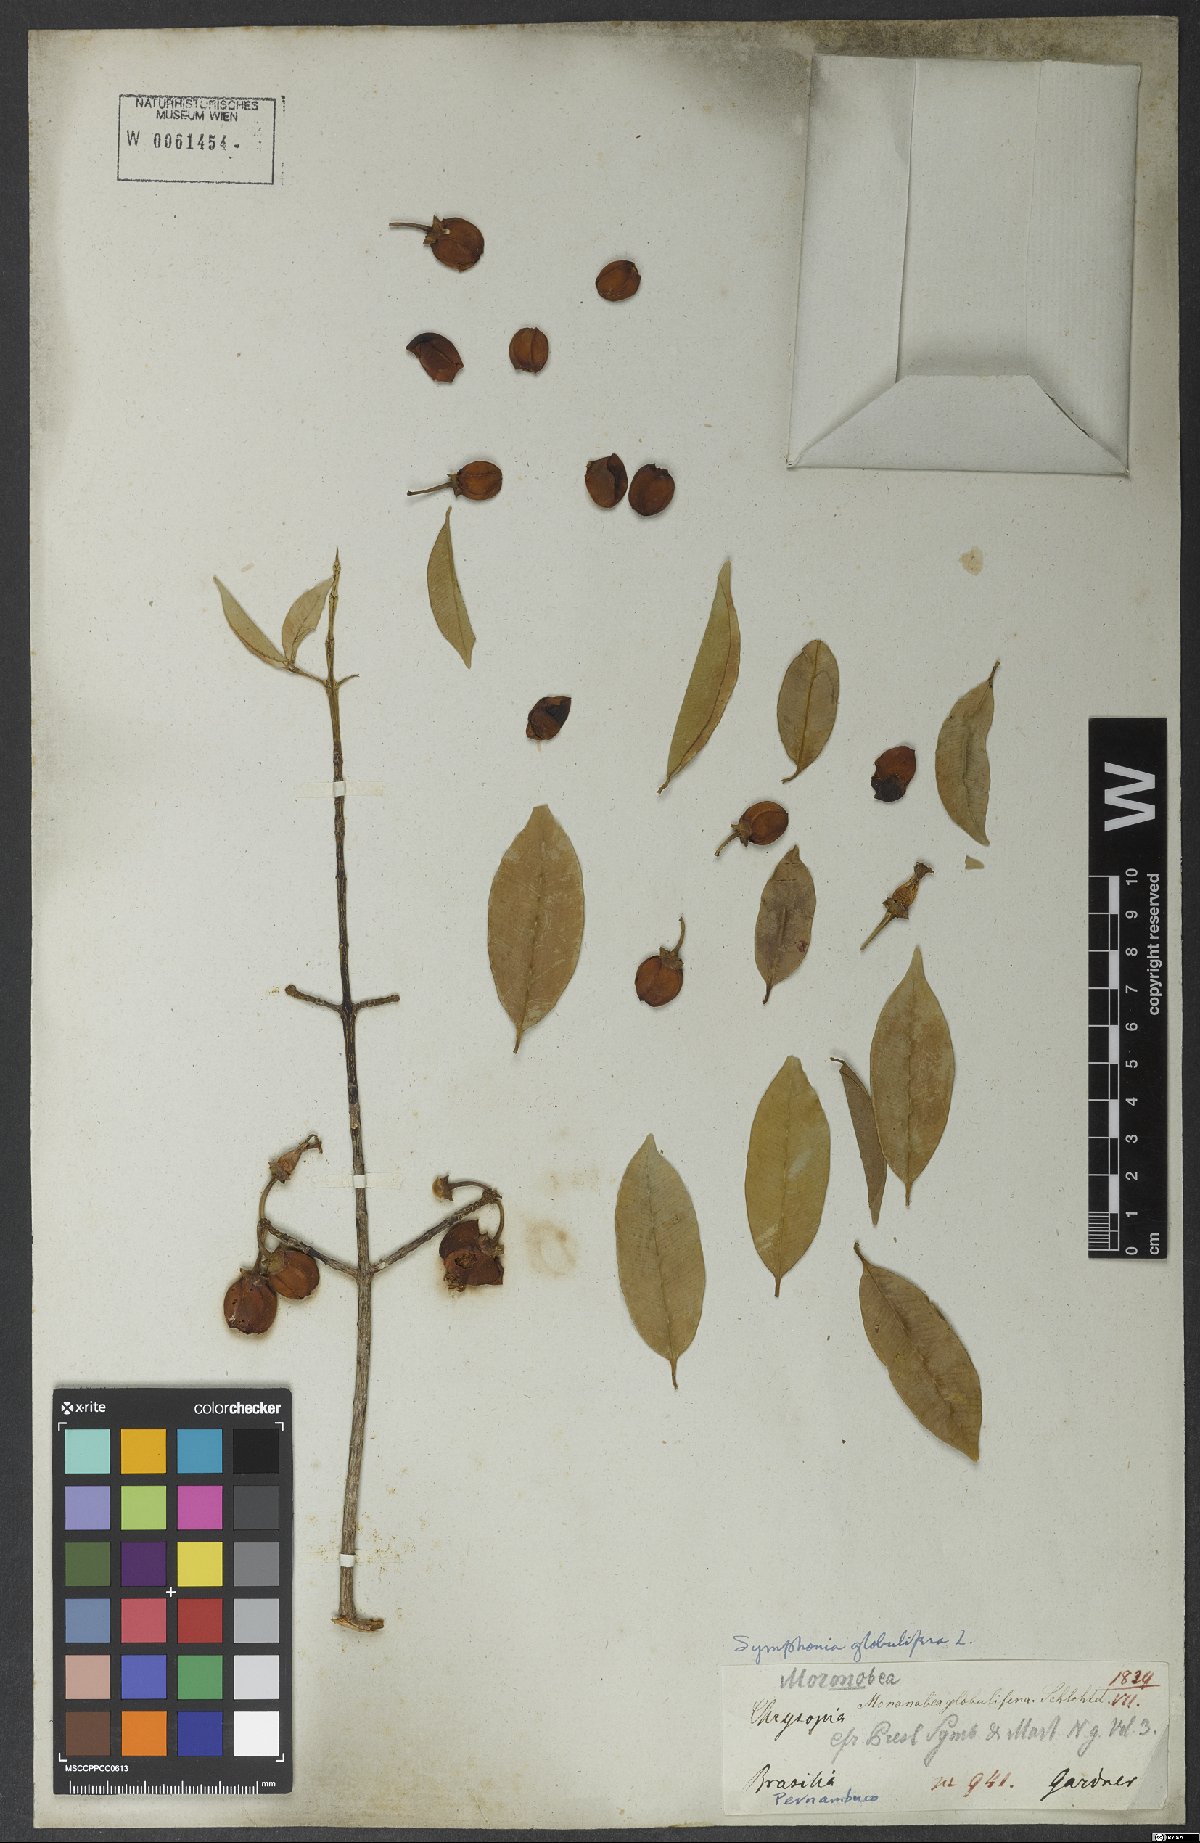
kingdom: Plantae
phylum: Tracheophyta
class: Magnoliopsida
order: Malpighiales
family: Clusiaceae
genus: Symphonia
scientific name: Symphonia globulifera
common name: Boarwood
